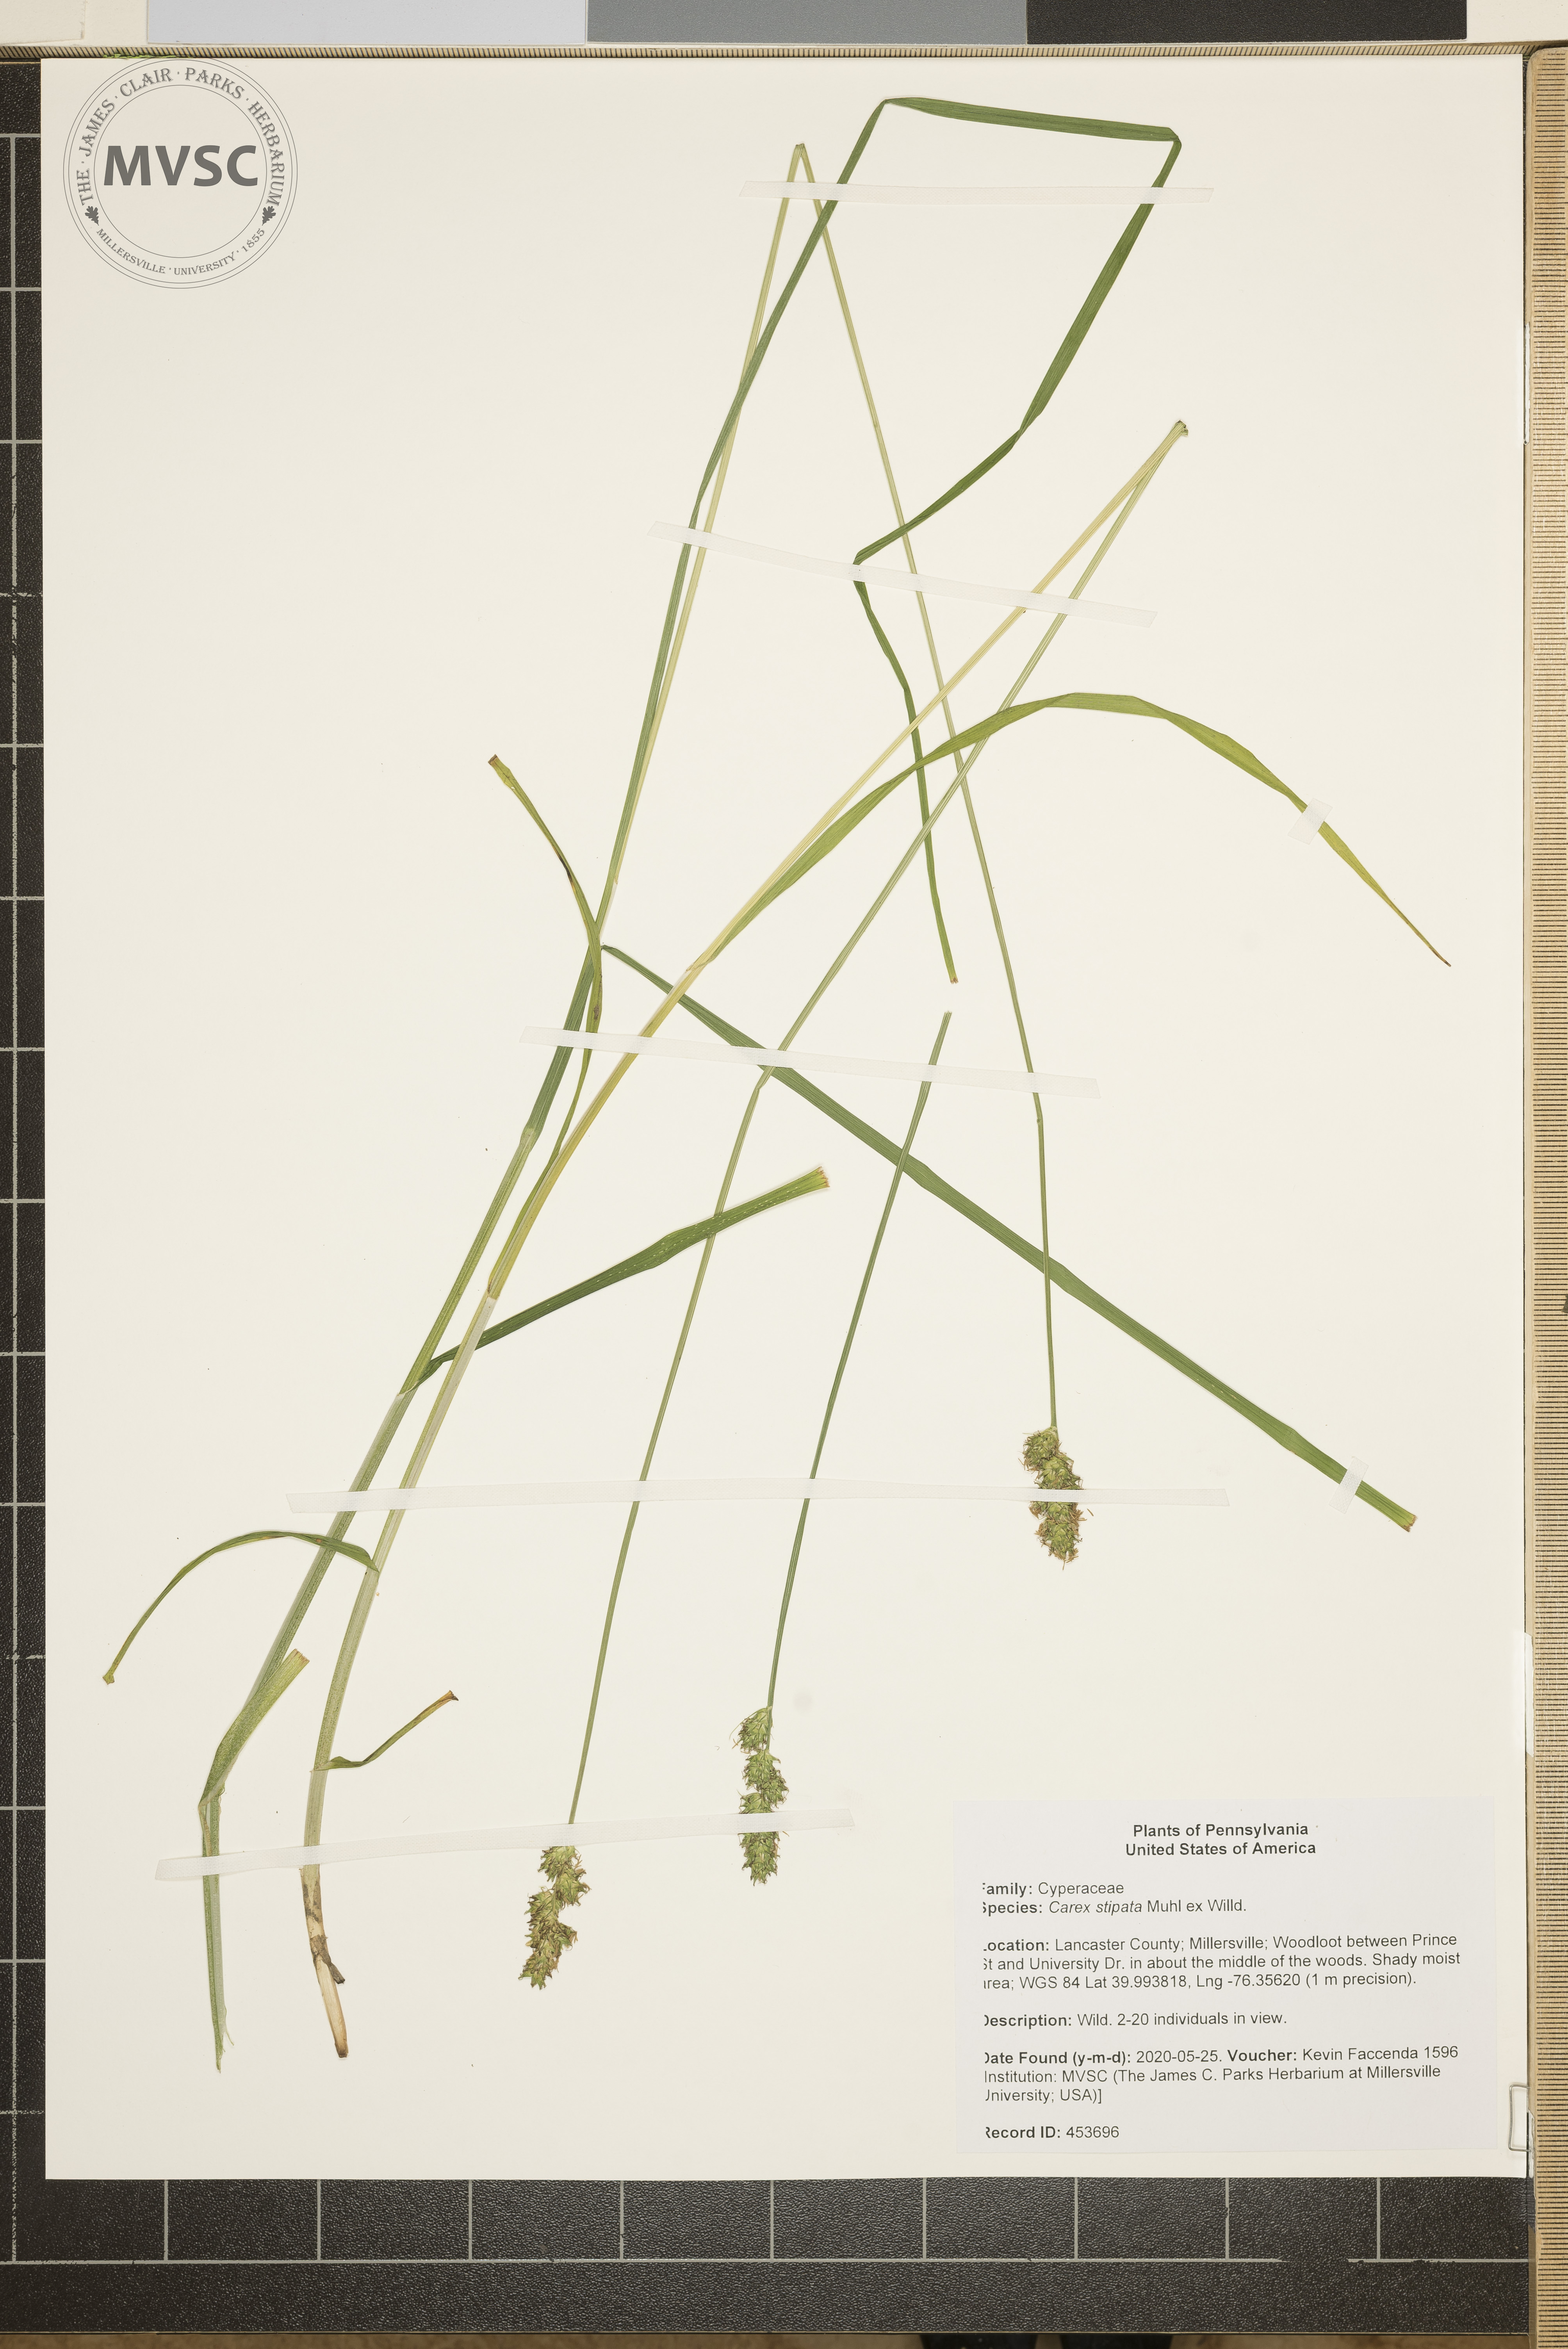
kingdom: Plantae
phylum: Tracheophyta
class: Liliopsida
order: Poales
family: Cyperaceae
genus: Carex
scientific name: Carex stipata
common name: Awl-fruited sedge
